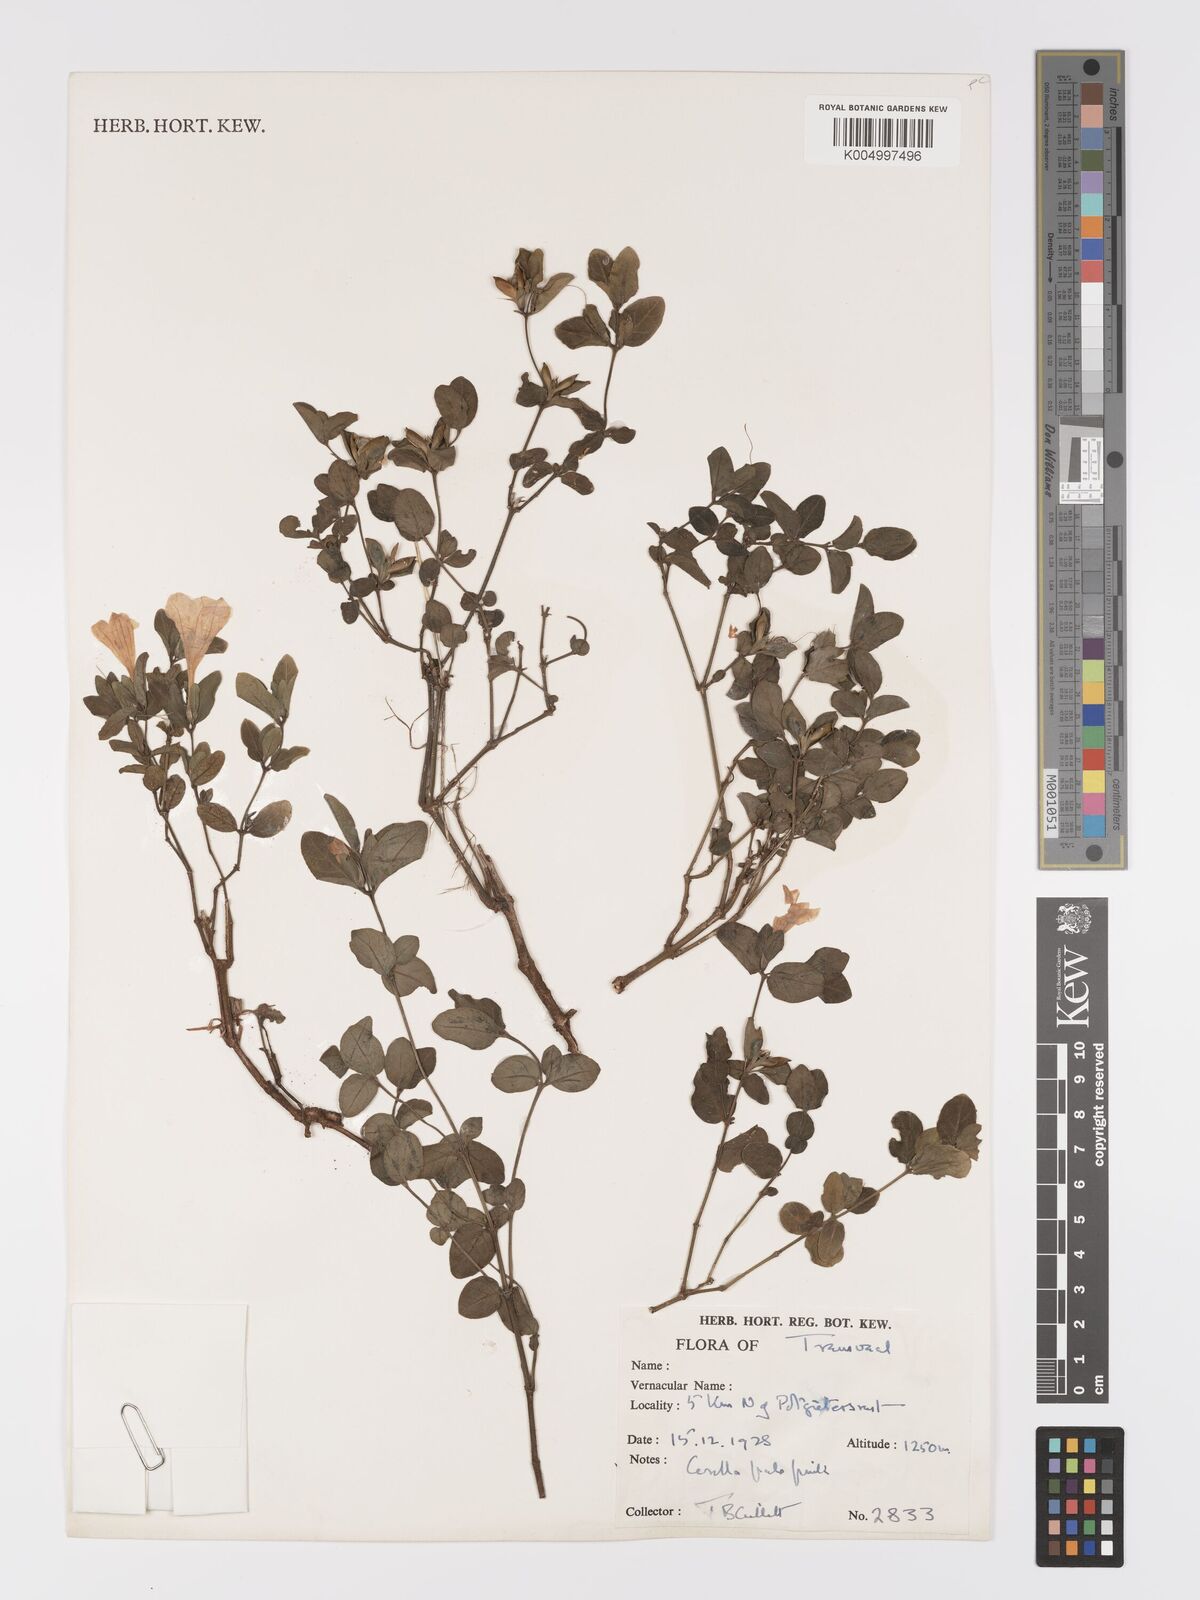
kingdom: Plantae
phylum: Tracheophyta
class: Magnoliopsida
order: Lamiales
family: Acanthaceae
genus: Ruellia
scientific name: Ruellia cordata
